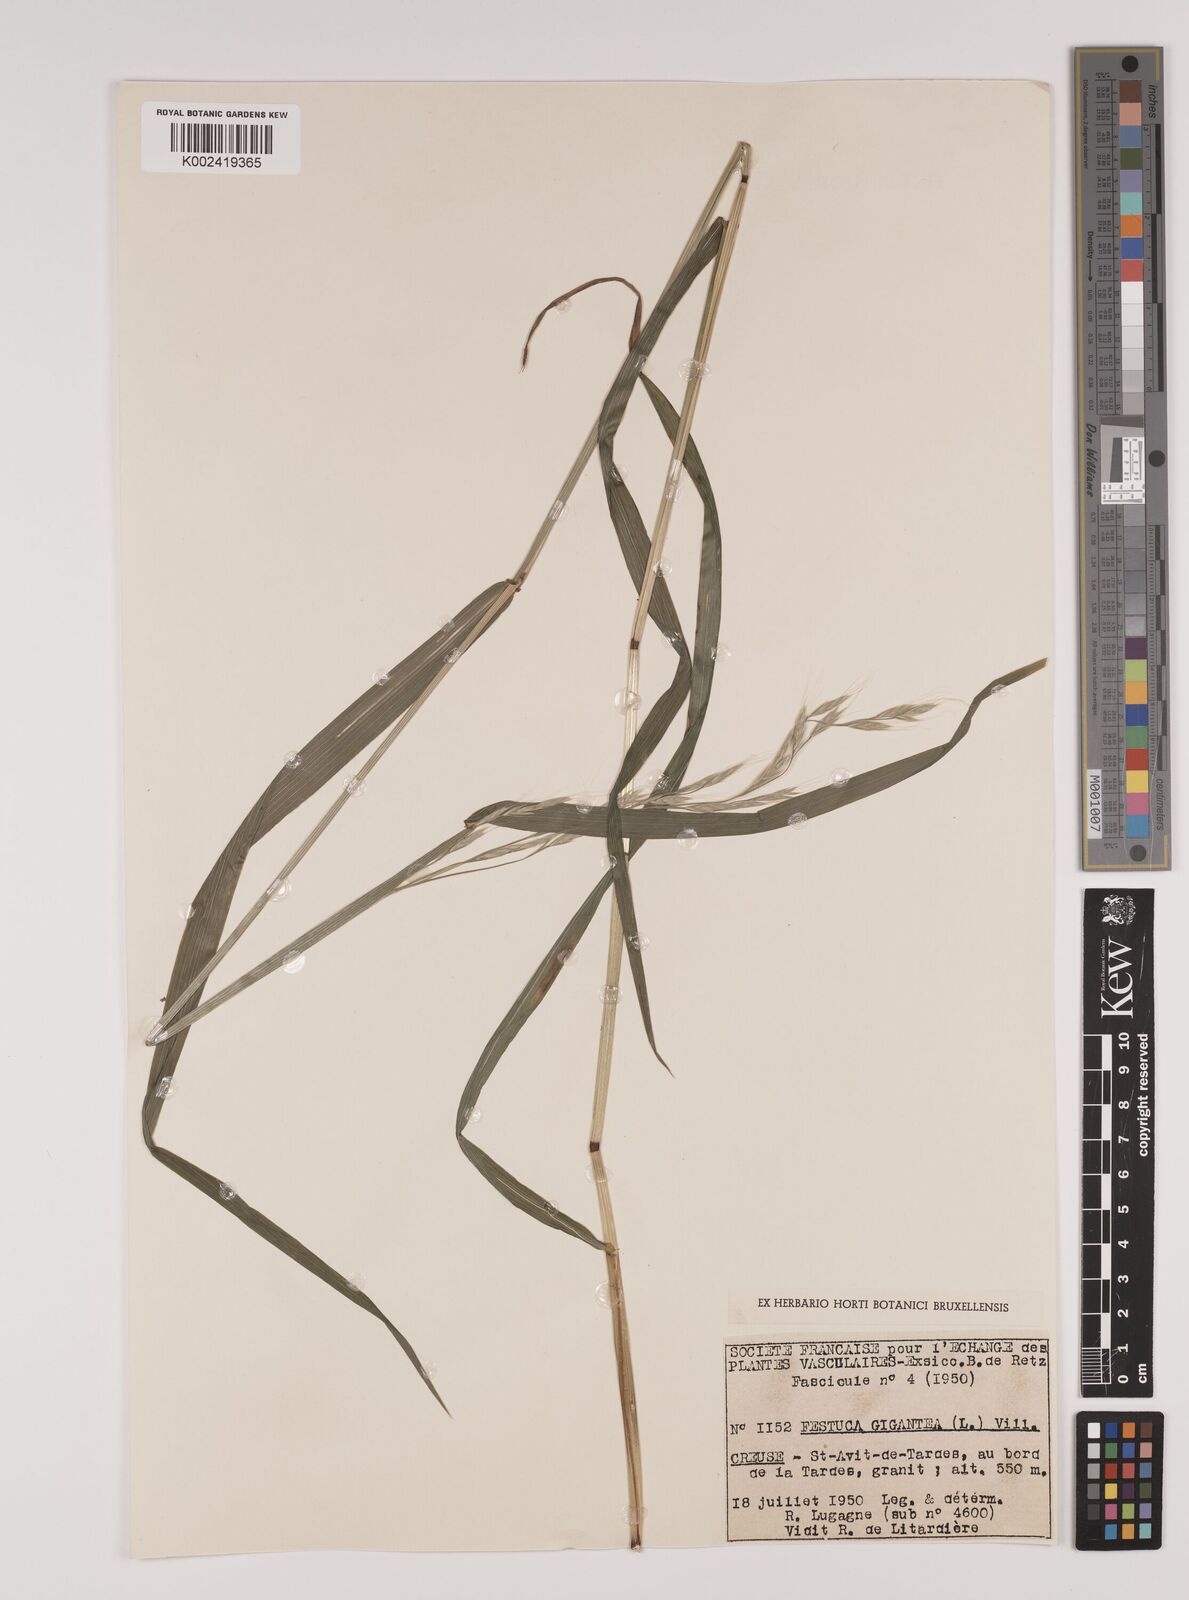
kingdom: Plantae
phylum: Tracheophyta
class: Liliopsida
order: Poales
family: Poaceae
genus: Lolium
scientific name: Lolium giganteum
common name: Giant fescue
